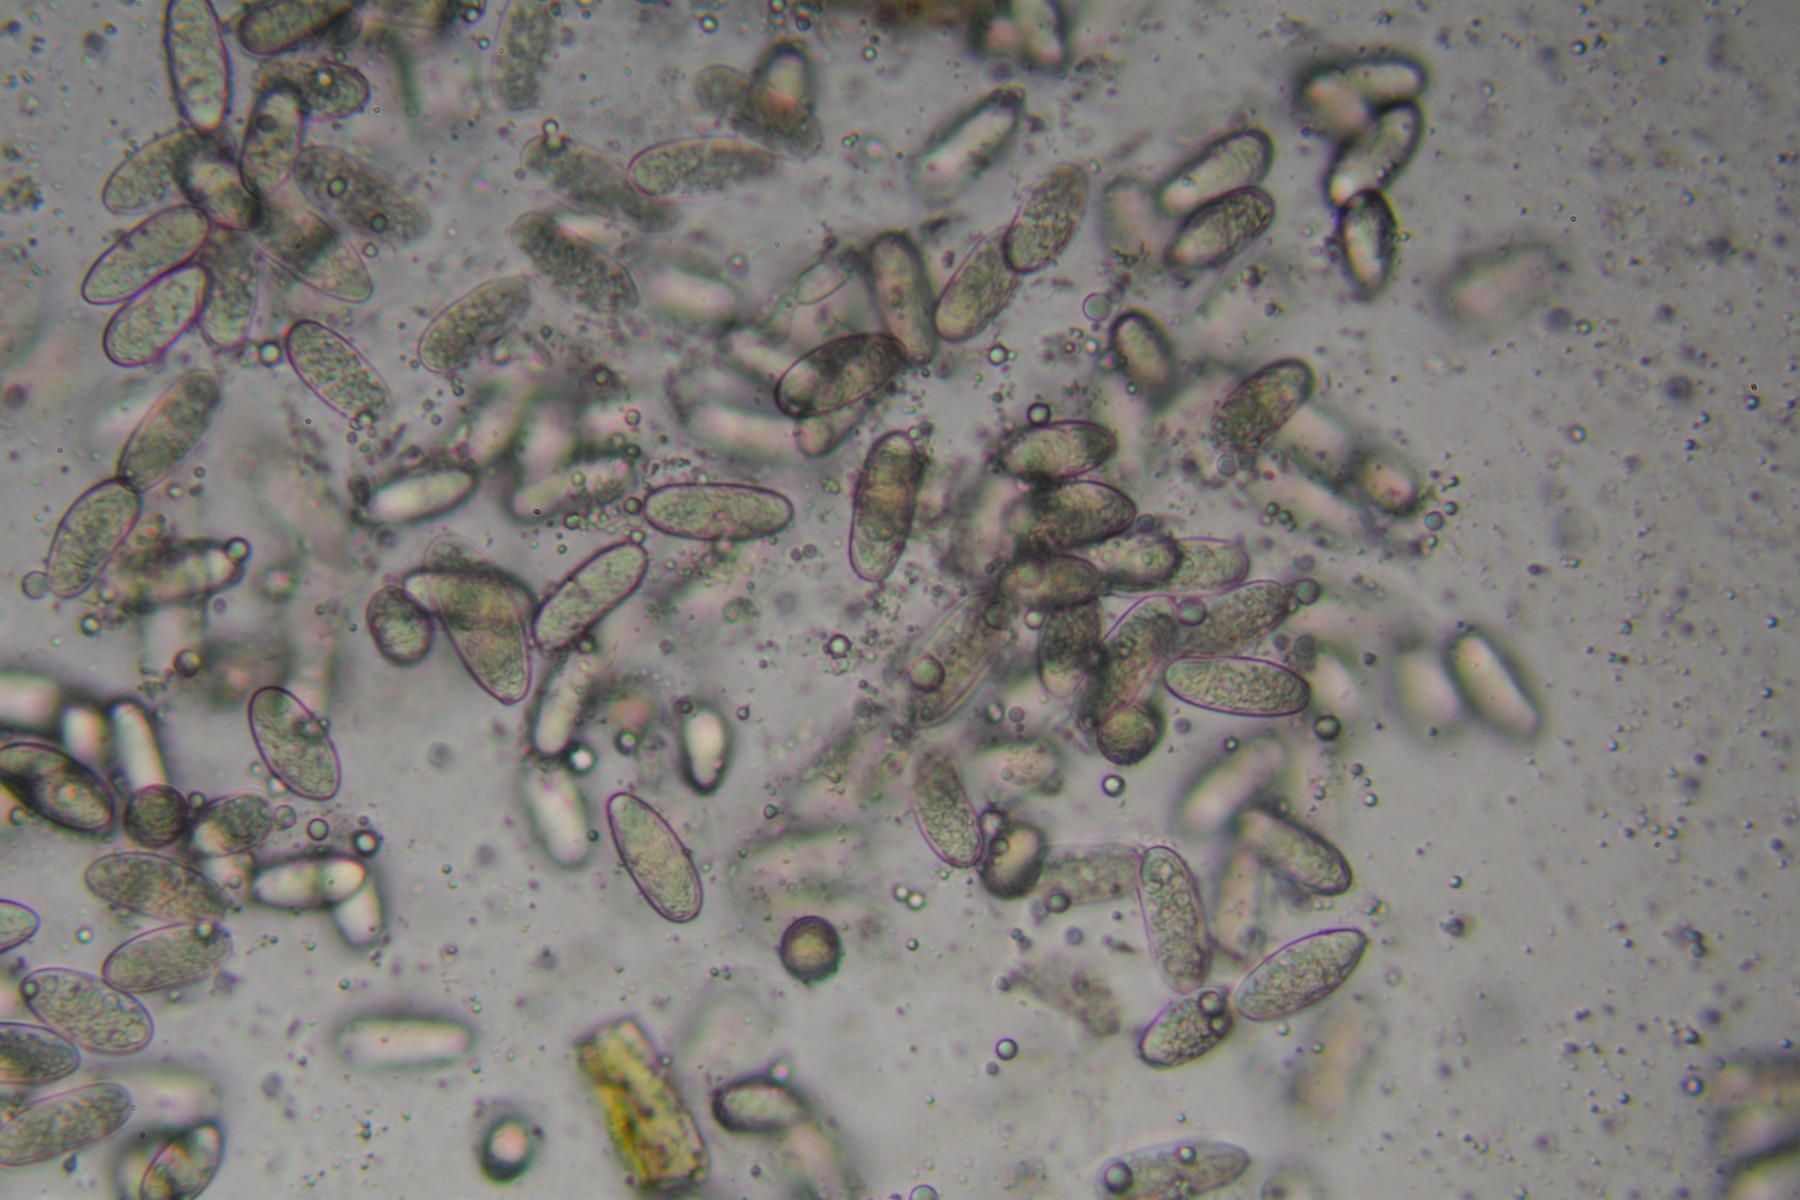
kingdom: Fungi
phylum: Ascomycota
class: Sordariomycetes
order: Diaporthales
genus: Botryodiplodia
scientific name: Botryodiplodia fraxini
